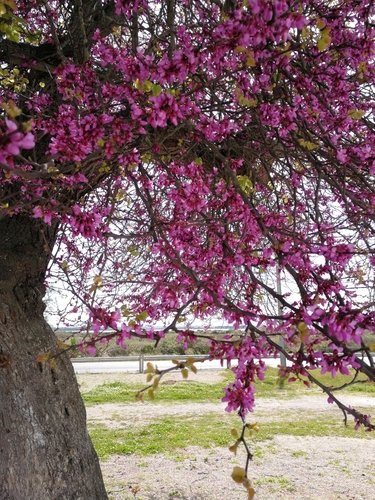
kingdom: Plantae
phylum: Tracheophyta
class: Magnoliopsida
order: Fabales
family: Fabaceae
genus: Cercis
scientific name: Cercis siliquastrum
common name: Judas tree
